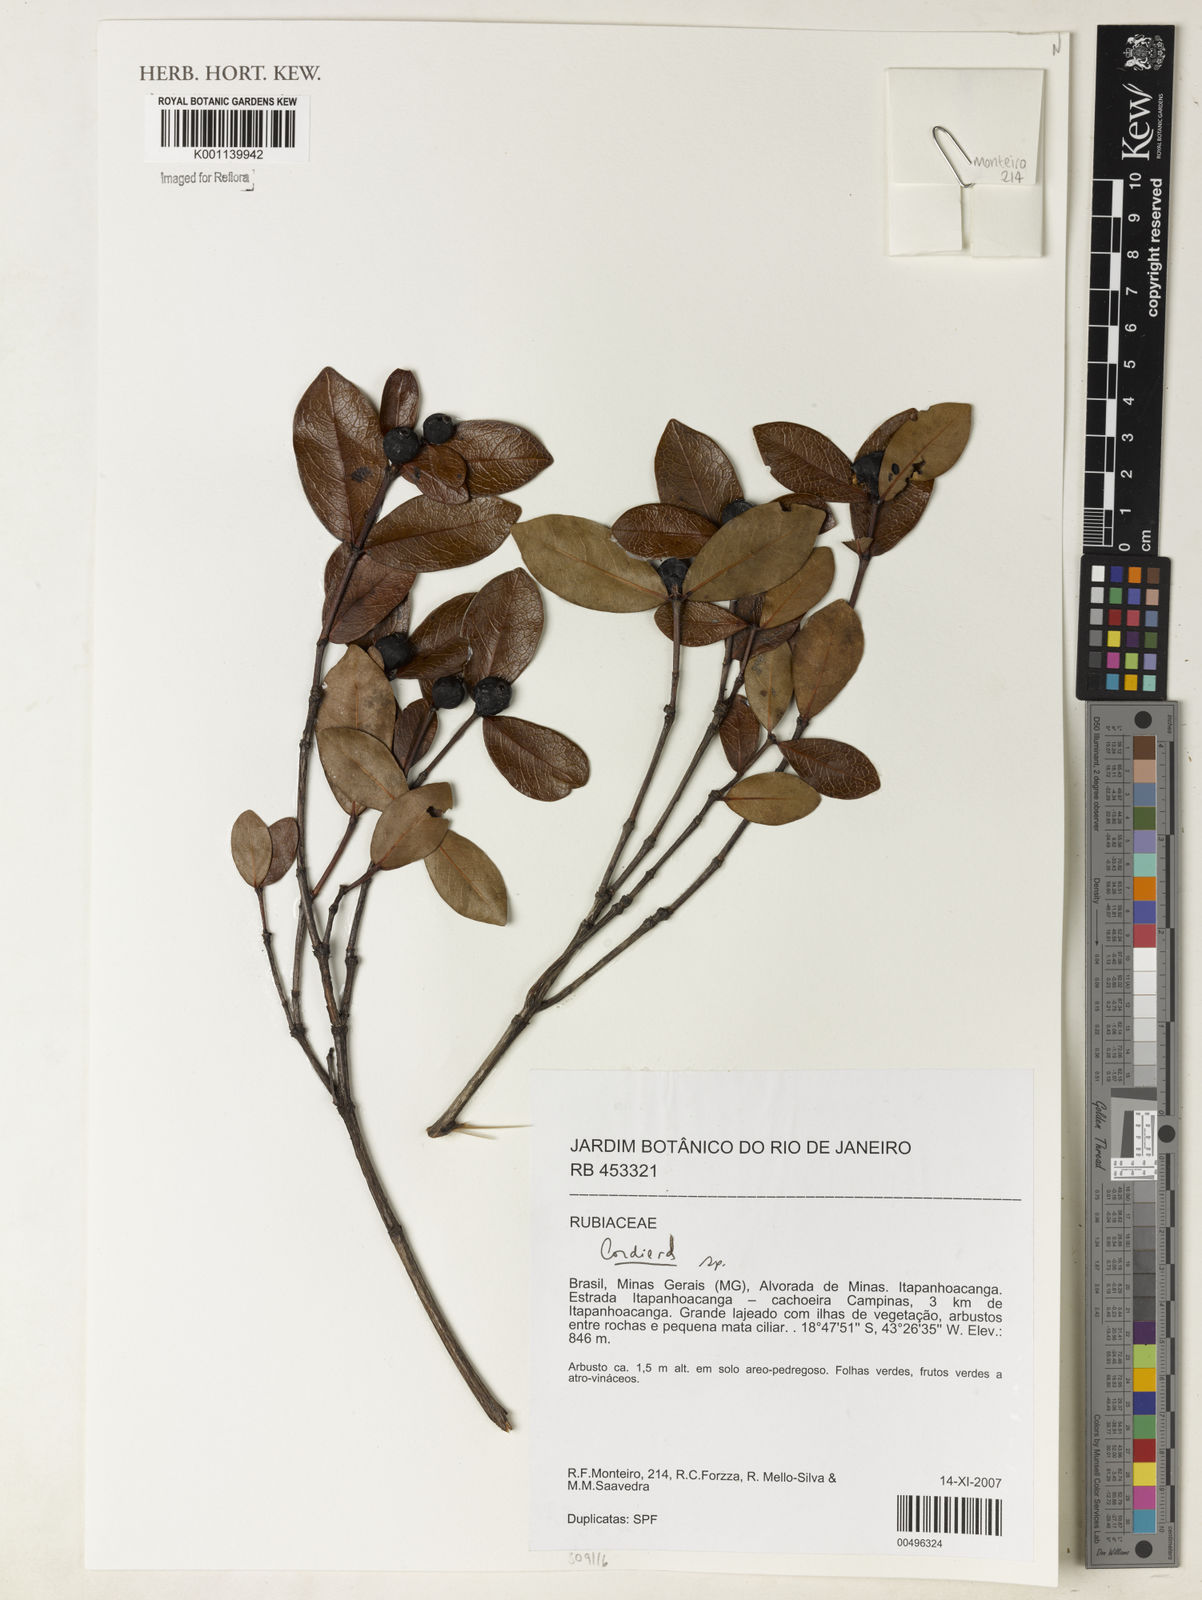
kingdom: Plantae
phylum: Tracheophyta
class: Magnoliopsida
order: Gentianales
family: Rubiaceae
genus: Alibertia
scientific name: Alibertia
